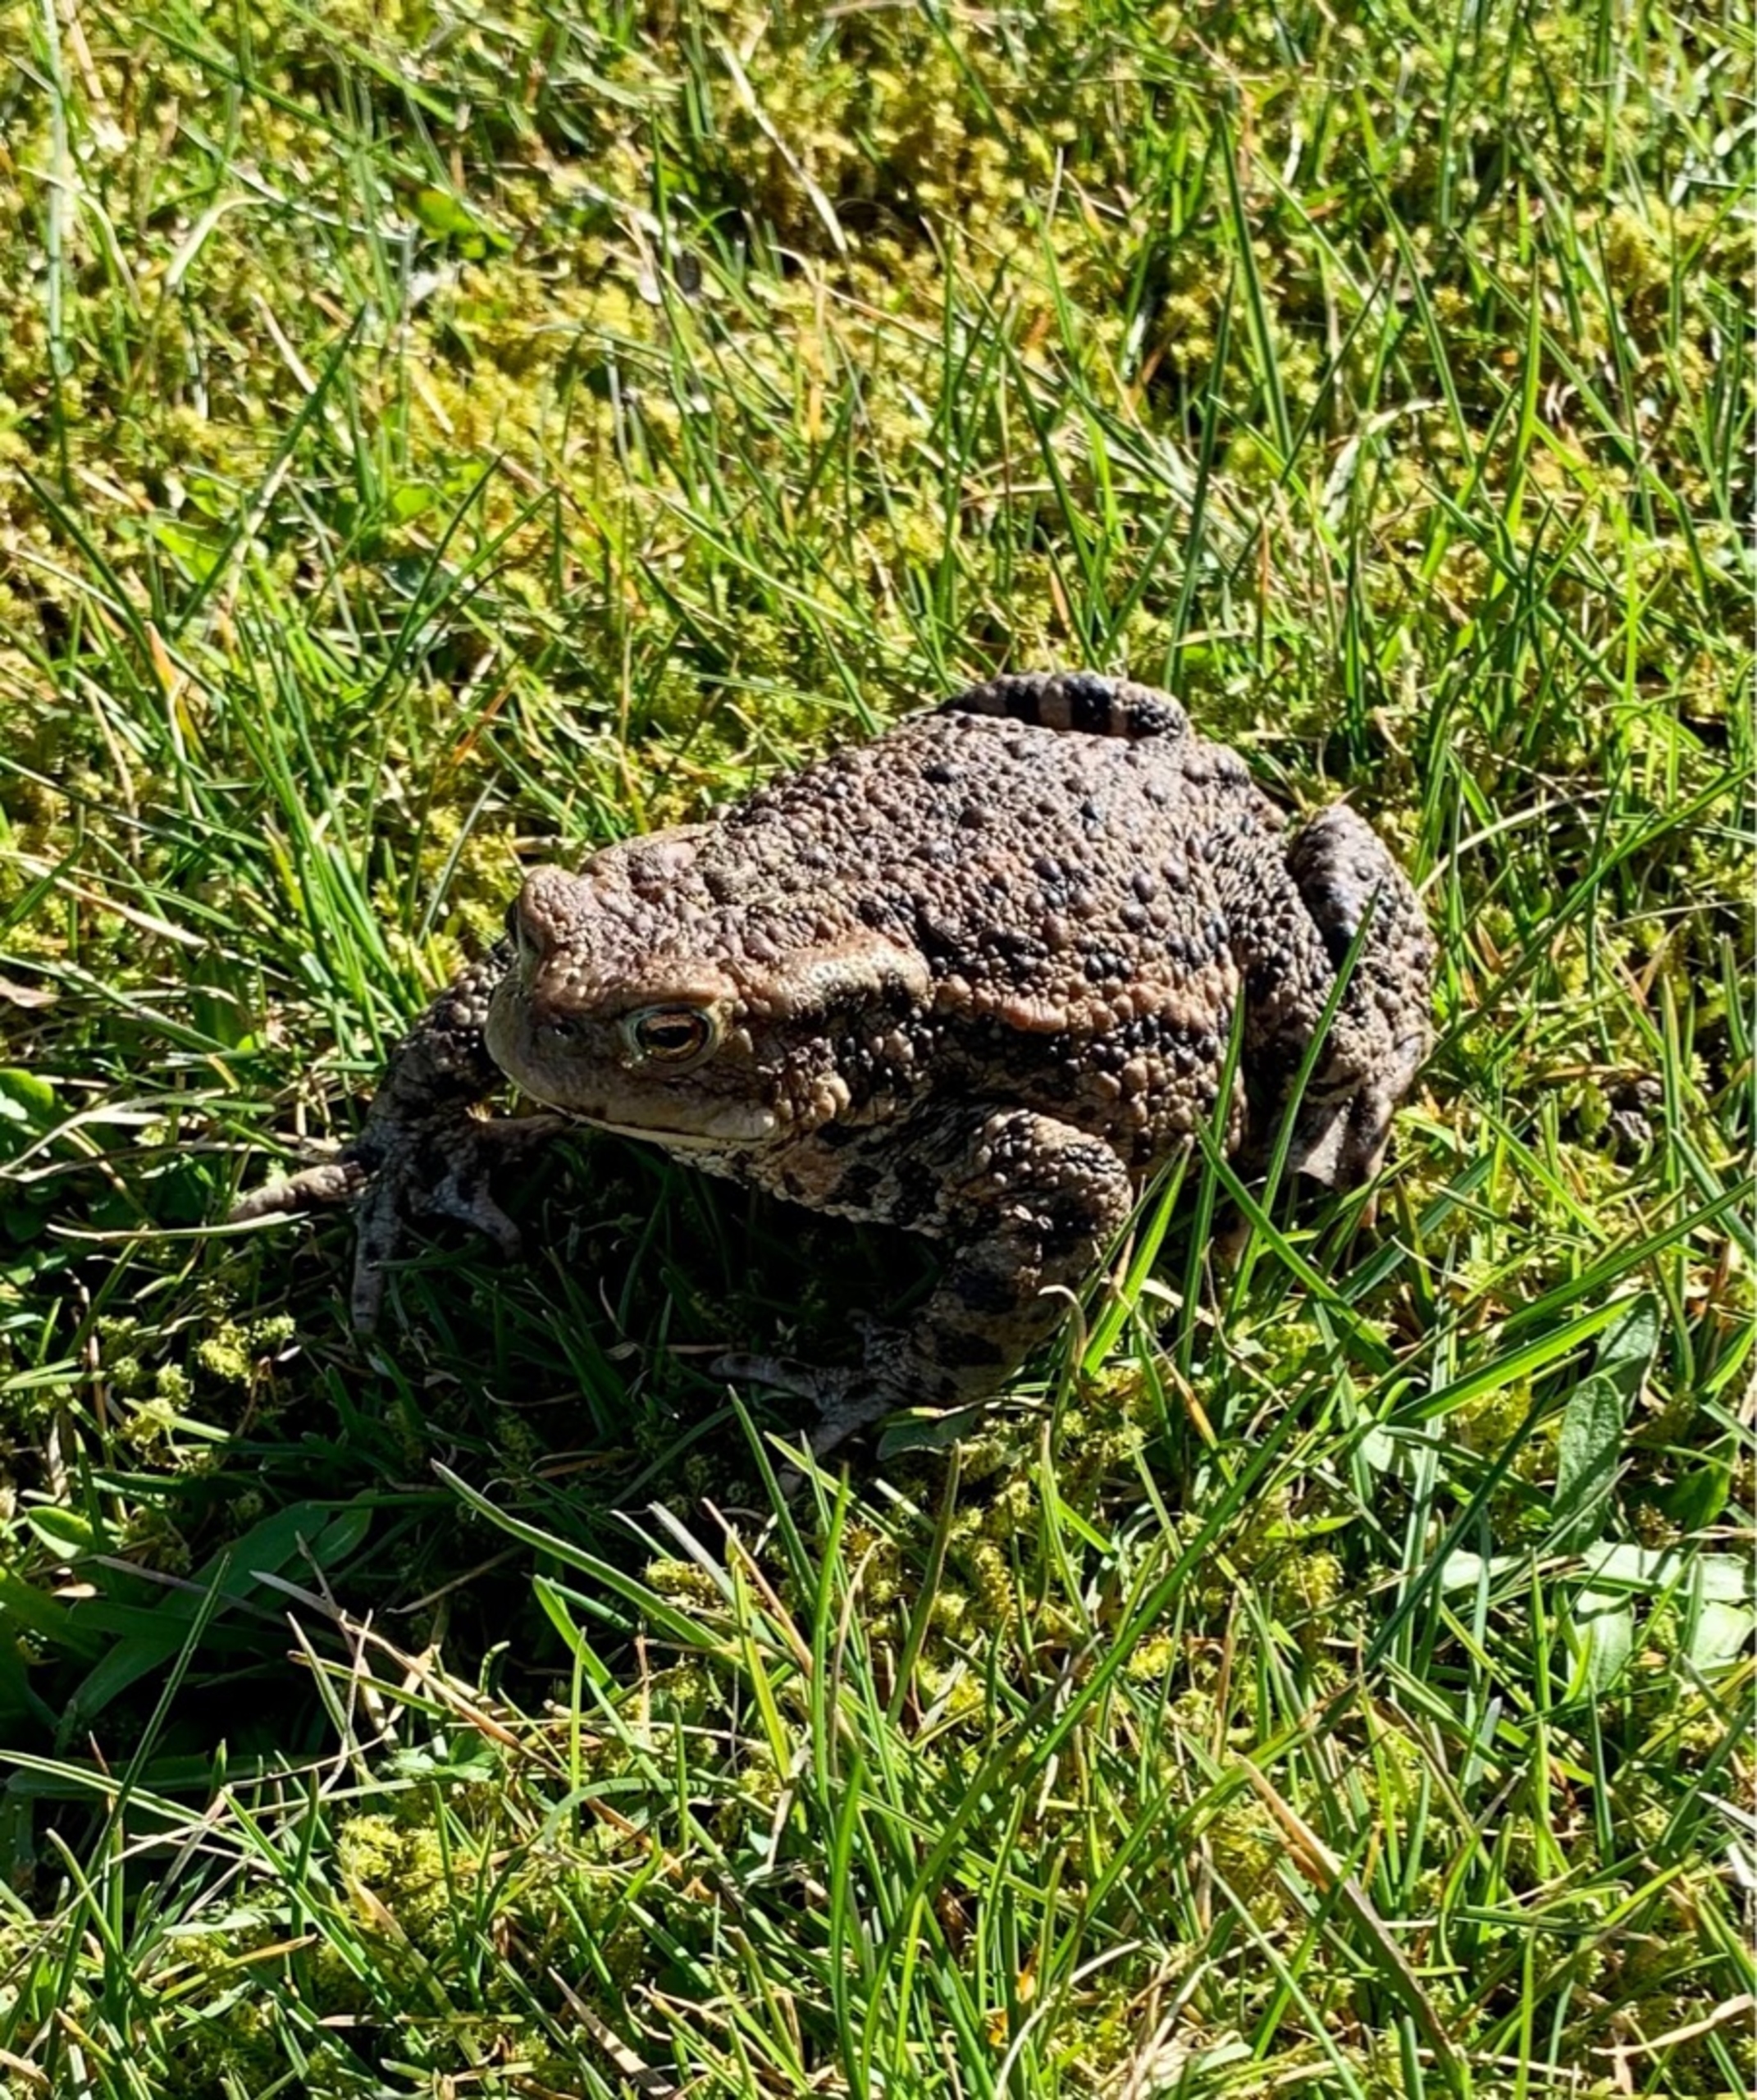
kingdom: Animalia
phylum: Chordata
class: Amphibia
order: Anura
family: Bufonidae
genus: Bufo
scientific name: Bufo bufo
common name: Skrubtudse
